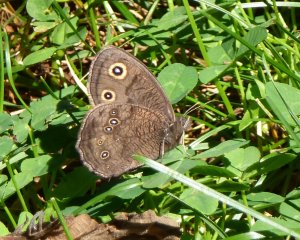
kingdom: Animalia
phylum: Arthropoda
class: Insecta
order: Lepidoptera
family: Nymphalidae
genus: Cercyonis
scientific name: Cercyonis pegala
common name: Common Wood-Nymph
